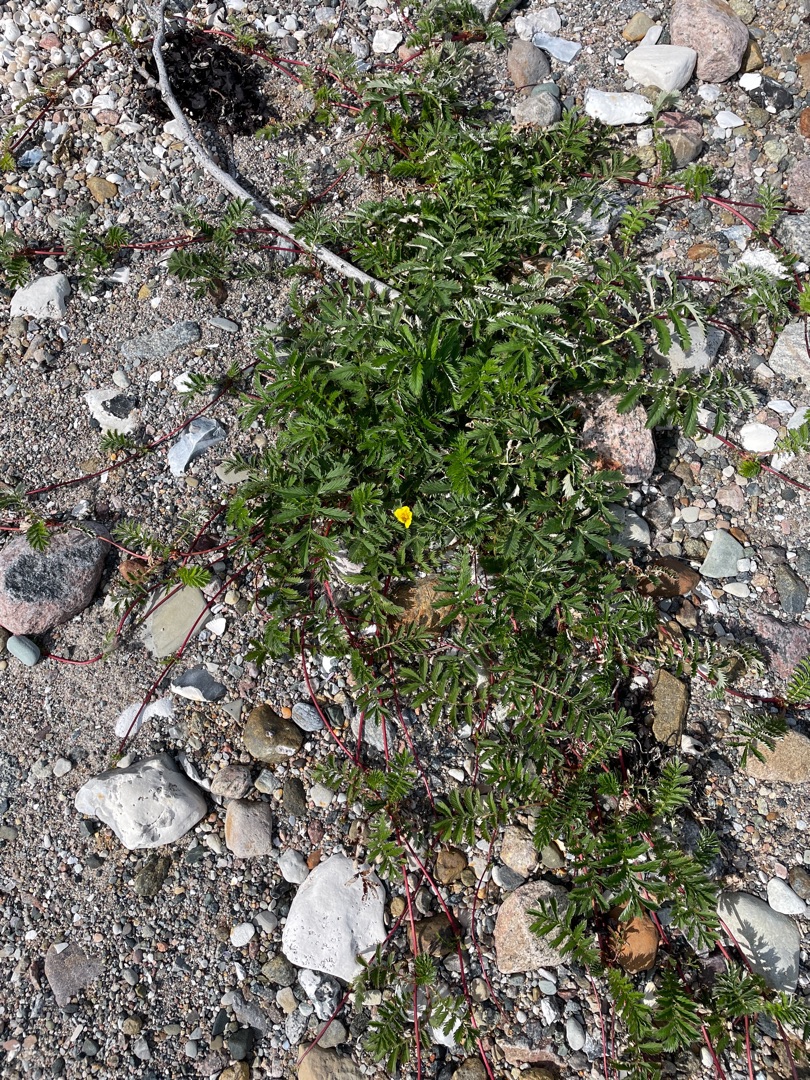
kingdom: Plantae
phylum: Tracheophyta
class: Magnoliopsida
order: Rosales
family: Rosaceae
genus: Argentina
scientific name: Argentina anserina
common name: Gåsepotentil
